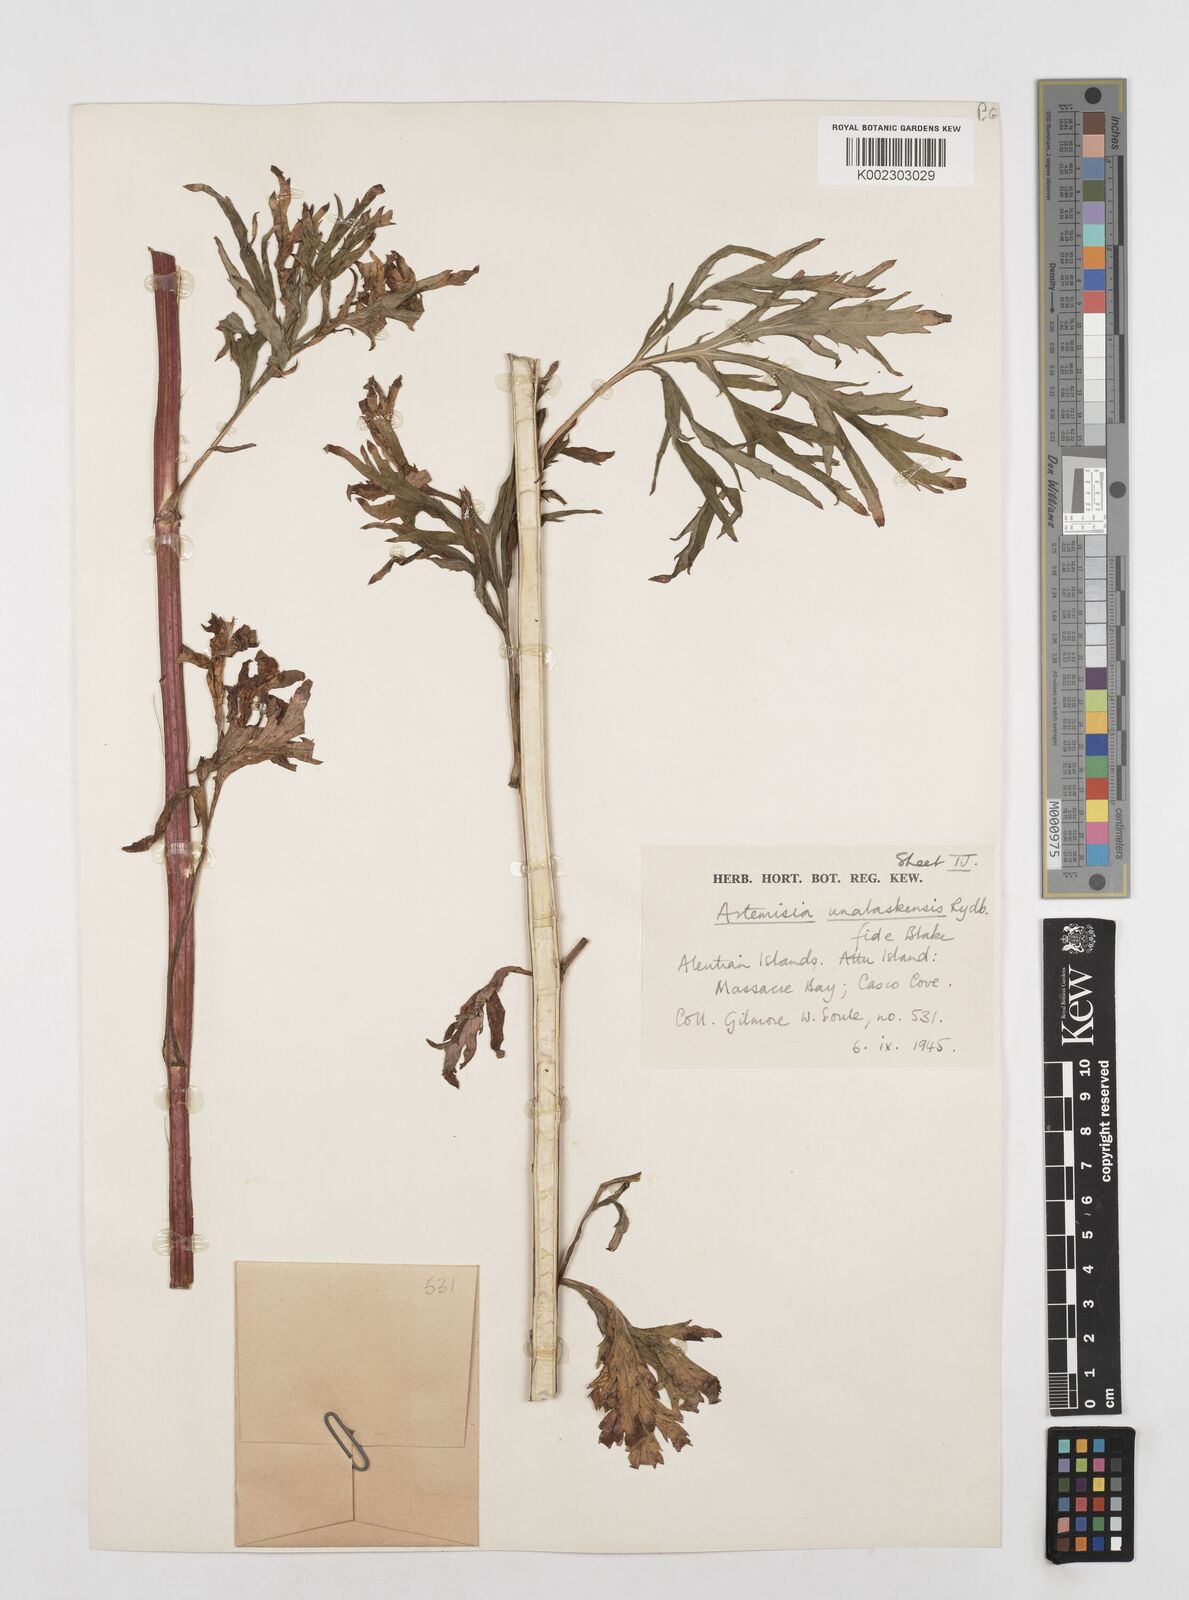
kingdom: Plantae
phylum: Tracheophyta
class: Magnoliopsida
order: Asterales
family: Asteraceae
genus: Artemisia
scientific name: Artemisia tilesii
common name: Aleutian mugwort
